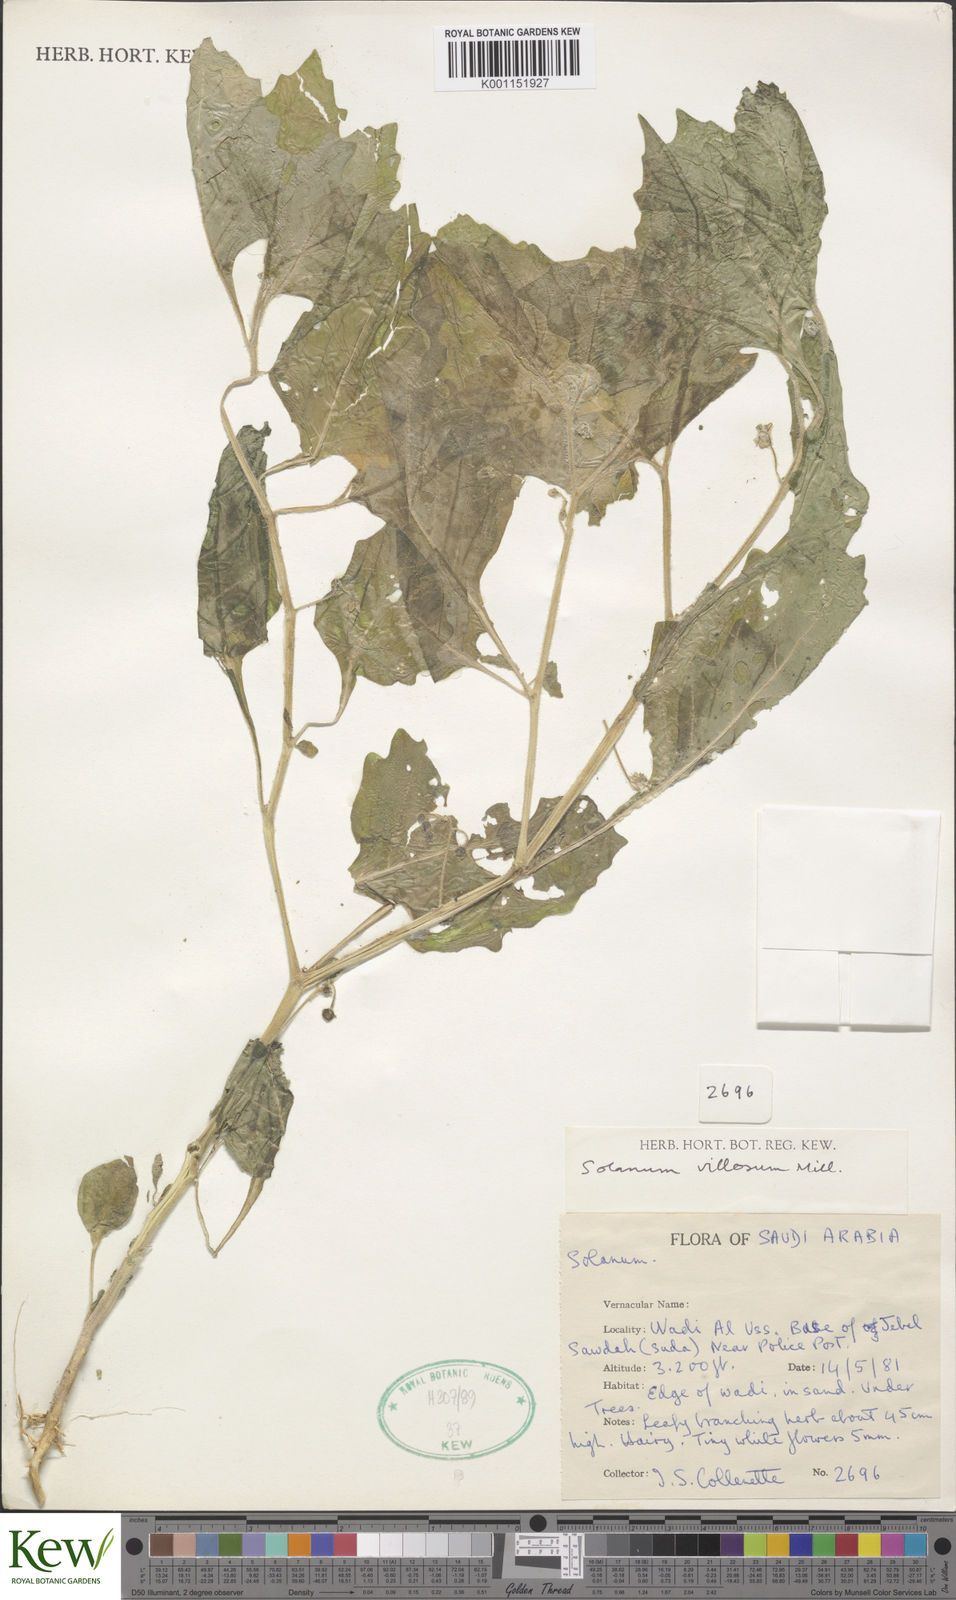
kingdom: Plantae
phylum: Tracheophyta
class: Magnoliopsida
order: Solanales
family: Solanaceae
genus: Solanum
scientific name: Solanum
